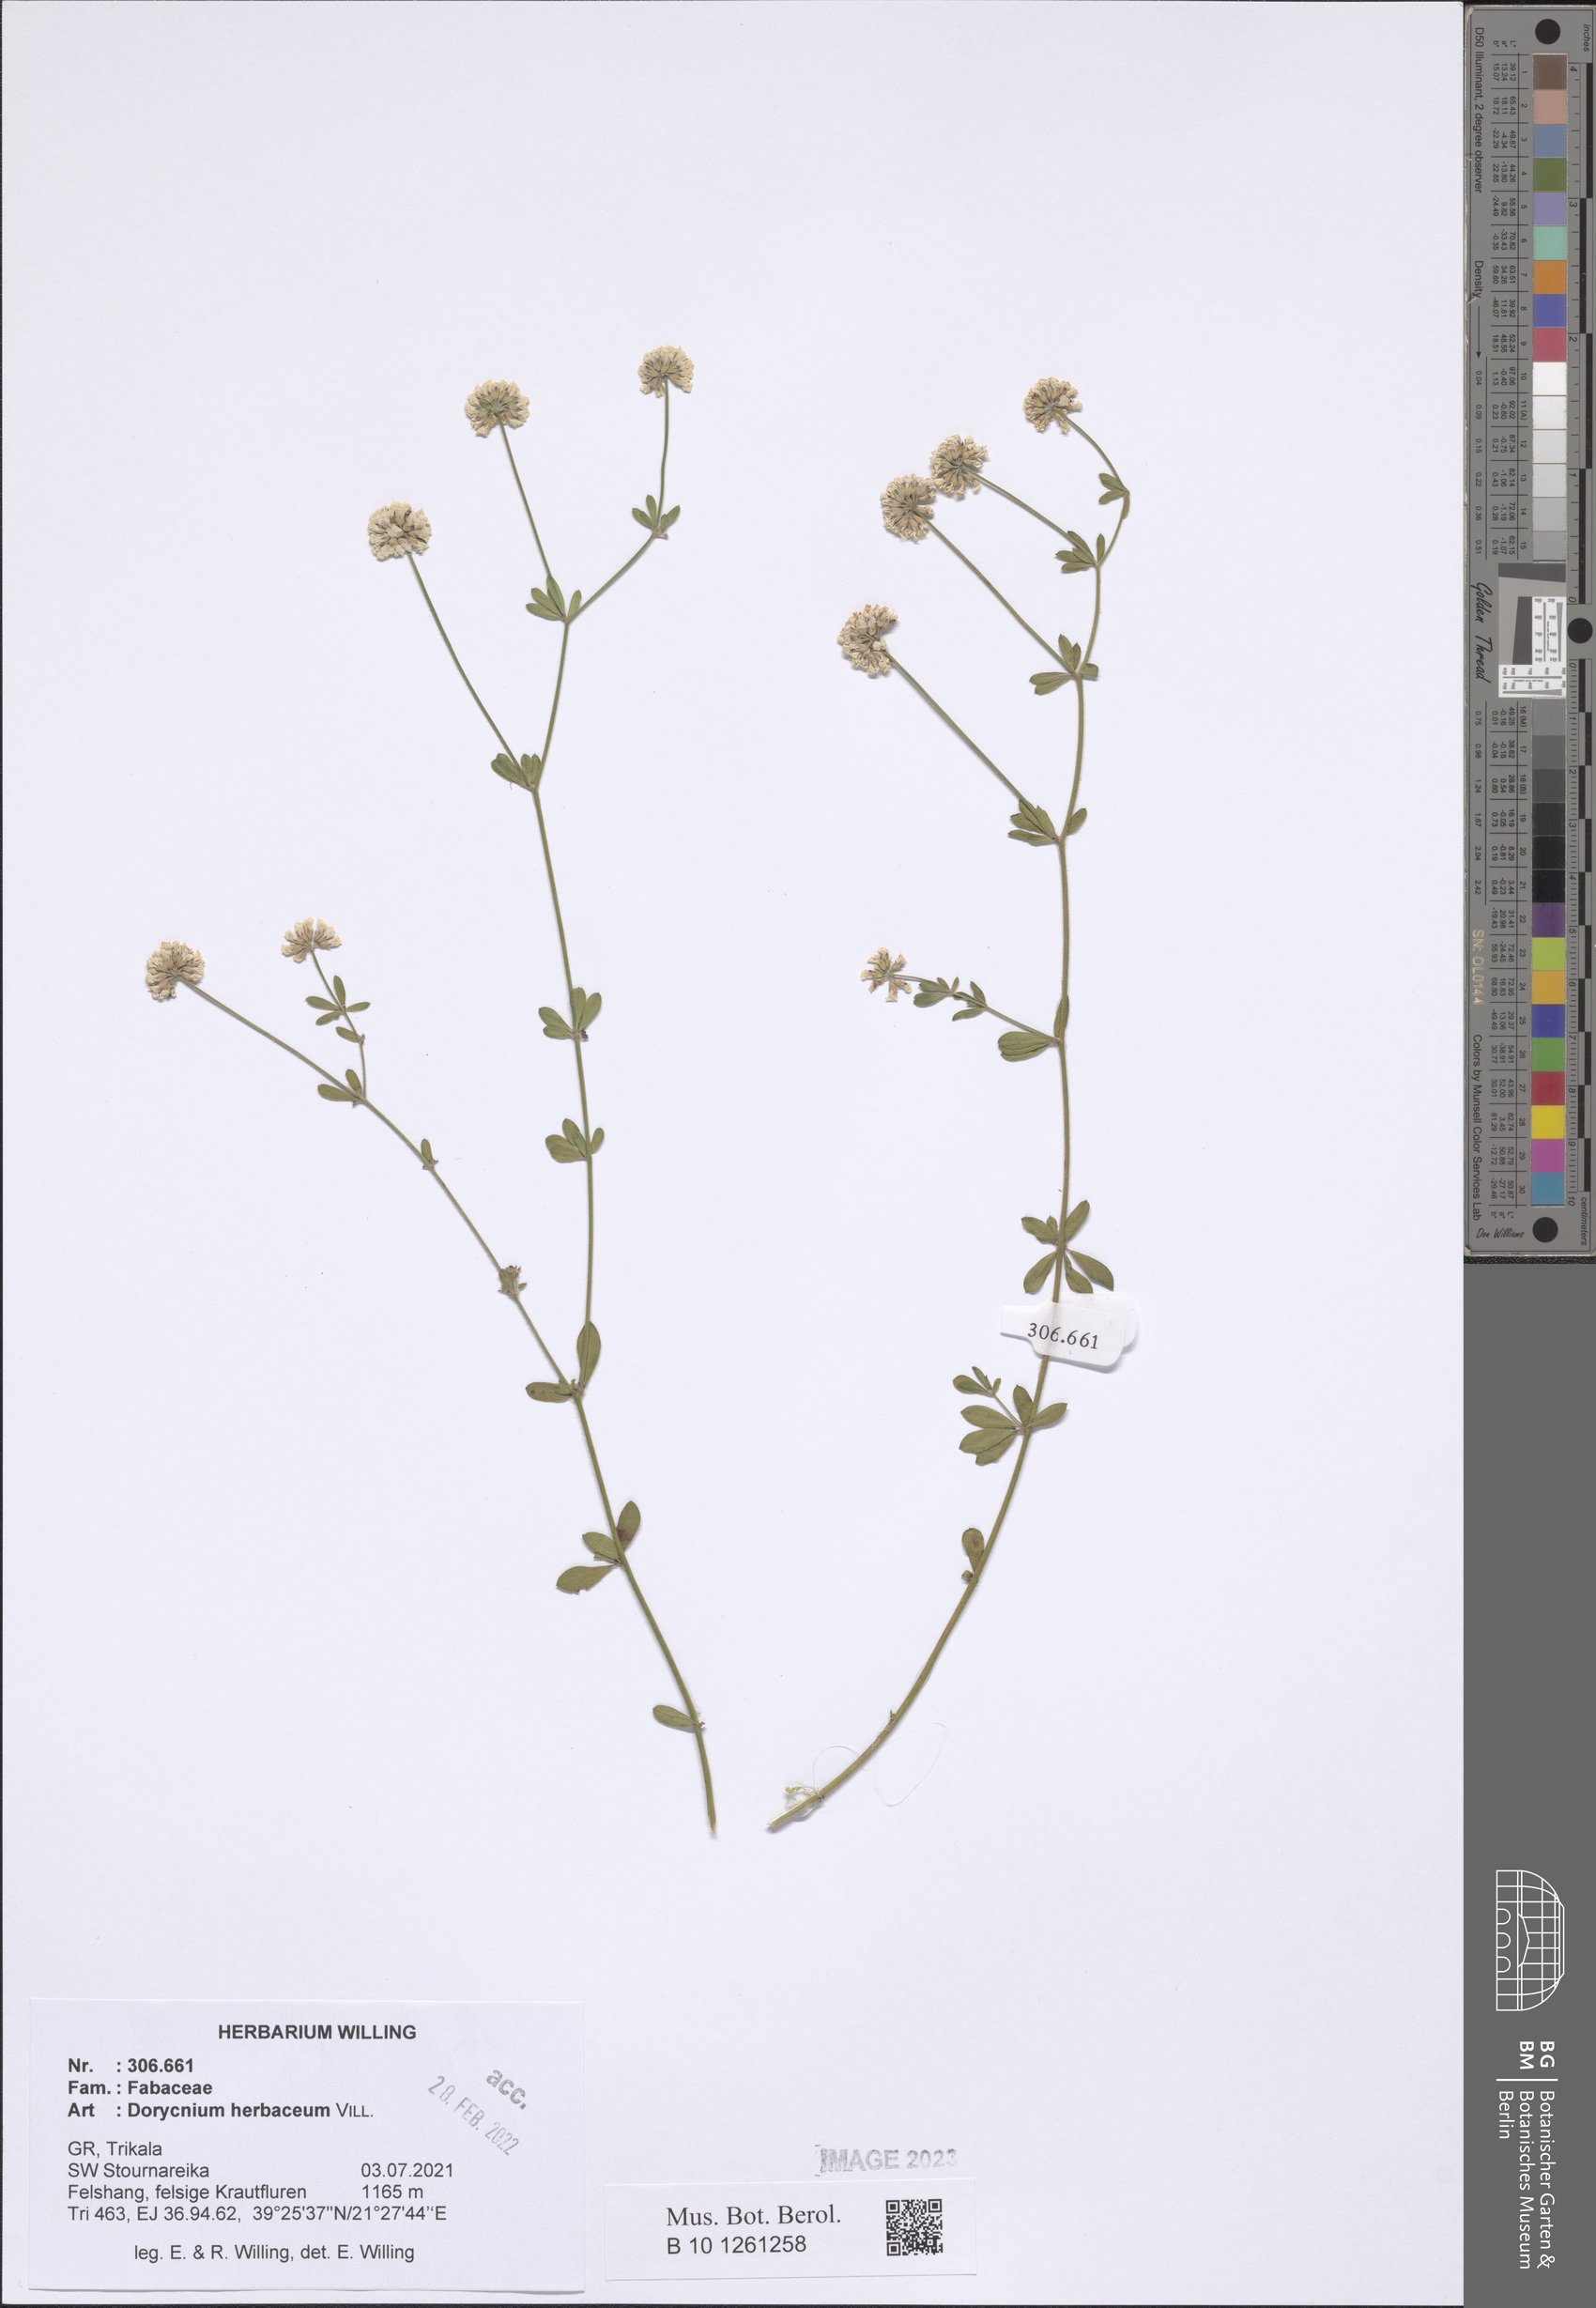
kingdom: Plantae
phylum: Tracheophyta
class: Magnoliopsida
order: Fabales
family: Fabaceae
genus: Lotus
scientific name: Lotus herbaceus
